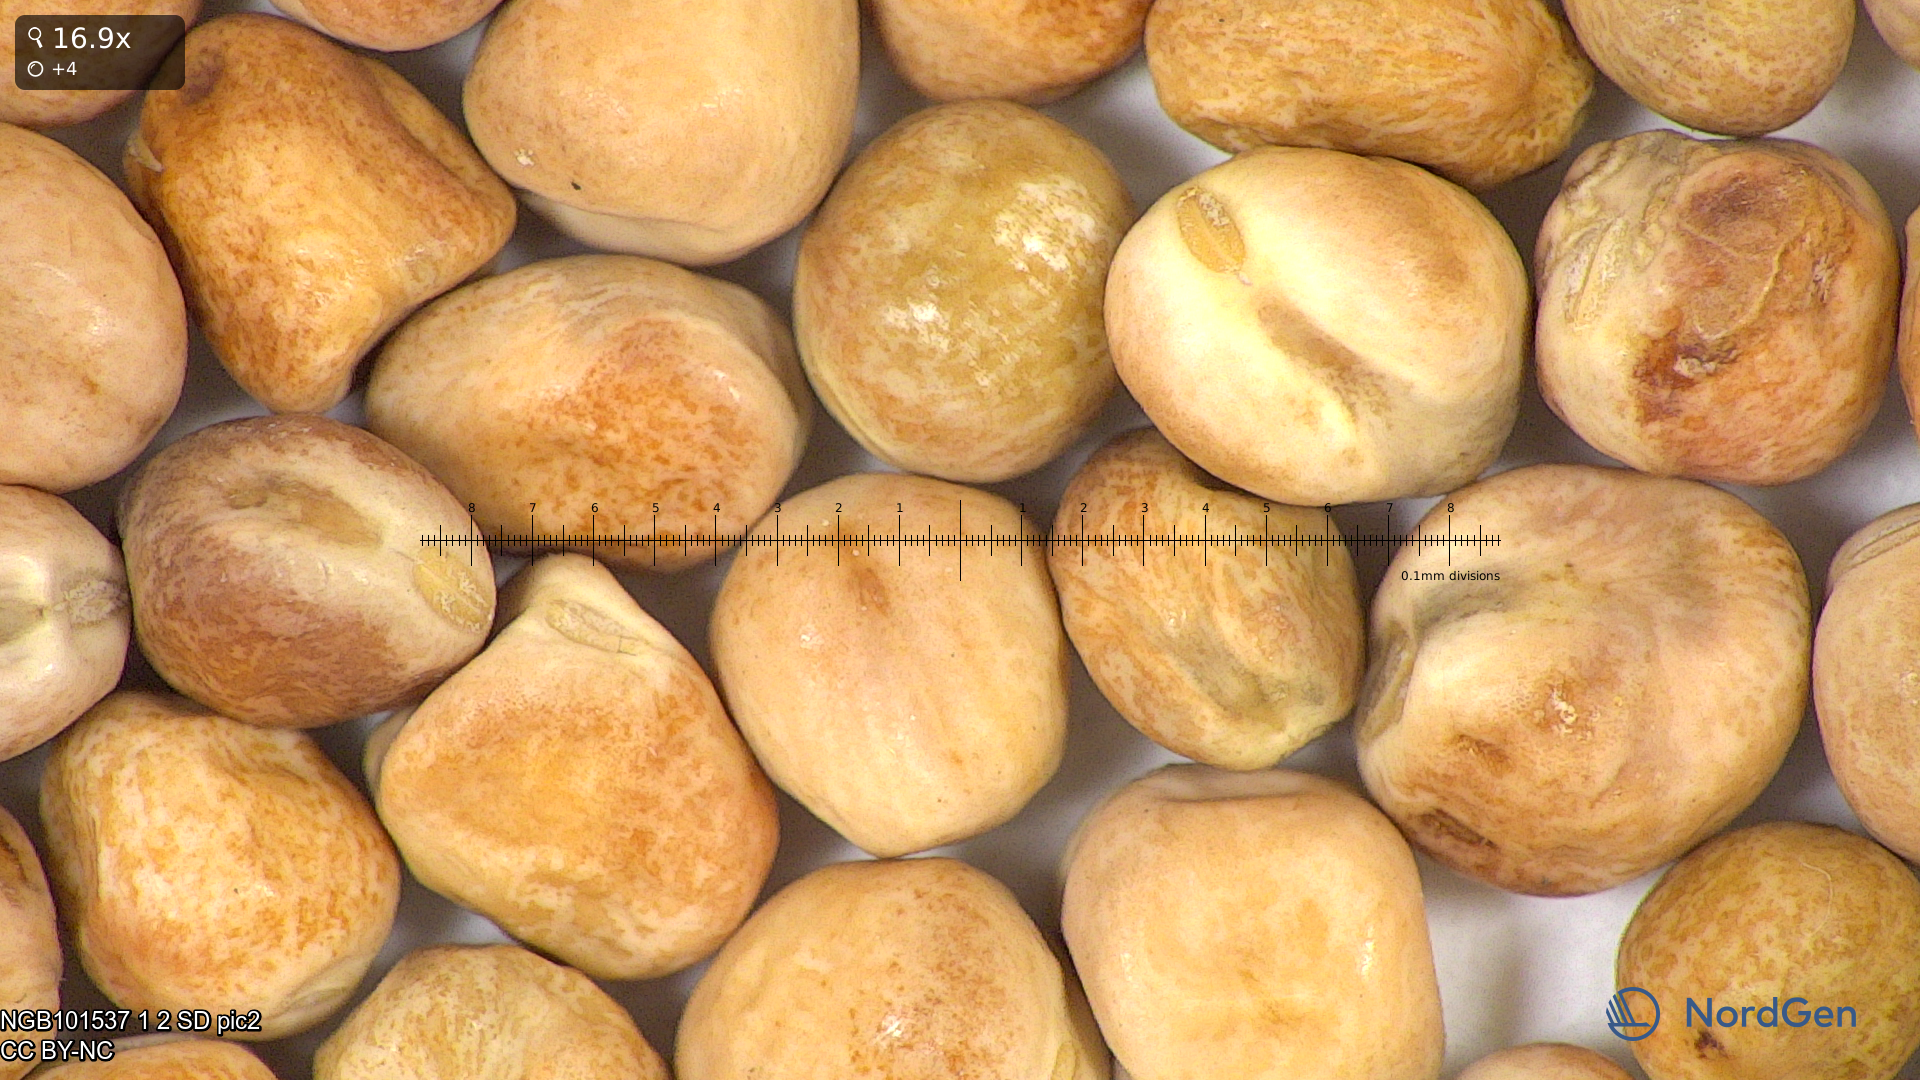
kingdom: Plantae
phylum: Tracheophyta
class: Magnoliopsida
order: Fabales
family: Fabaceae
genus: Lathyrus
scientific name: Lathyrus oleraceus
